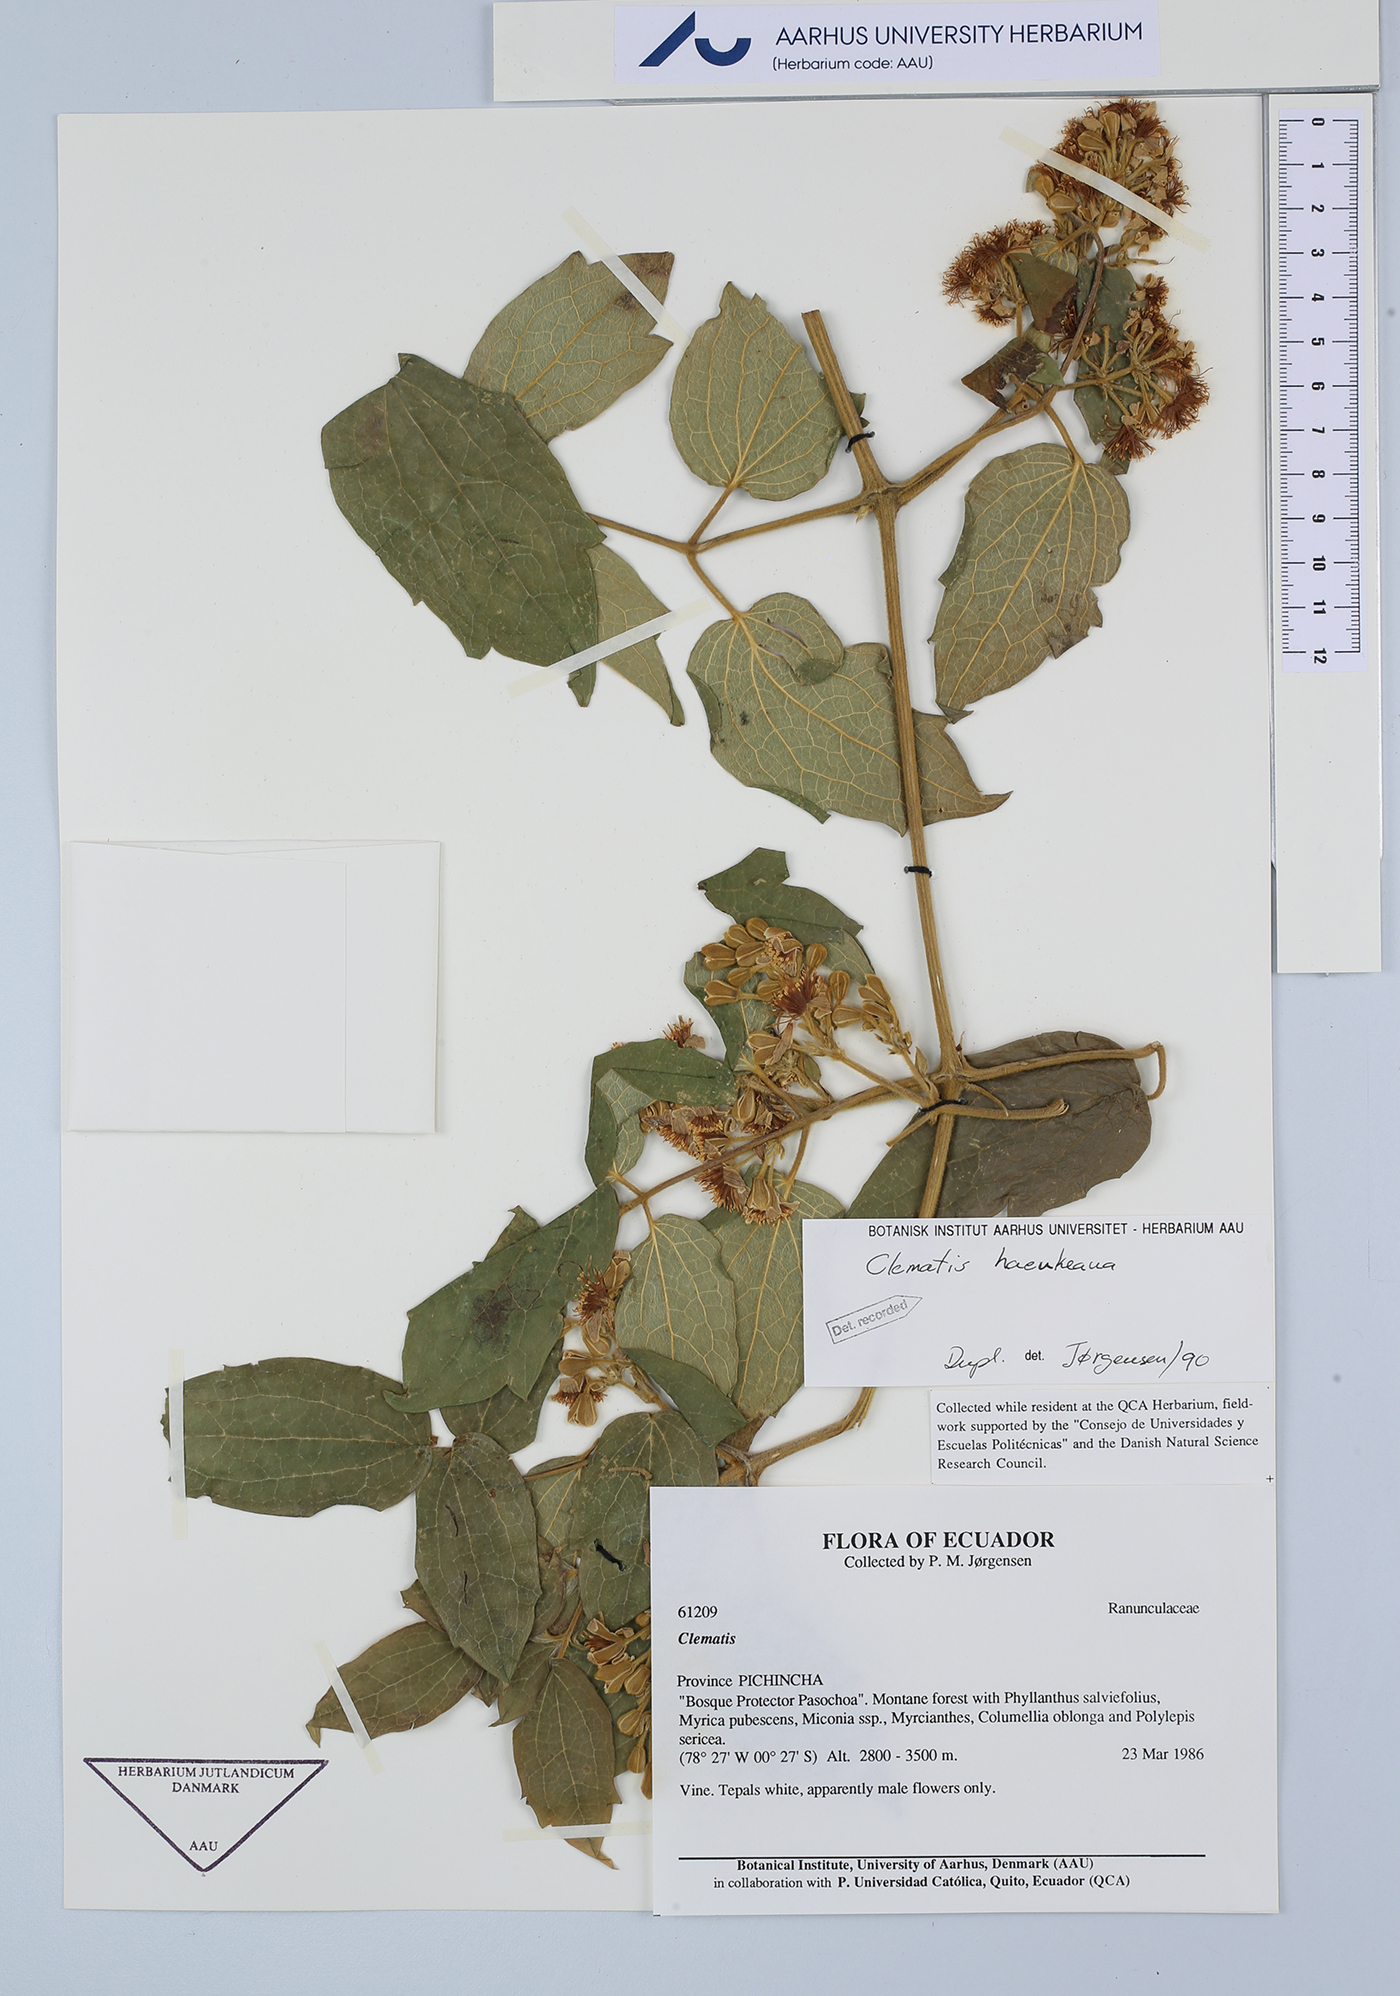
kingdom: Plantae
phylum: Tracheophyta
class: Magnoliopsida
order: Ranunculales
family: Ranunculaceae
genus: Clematis
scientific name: Clematis haenkeana
